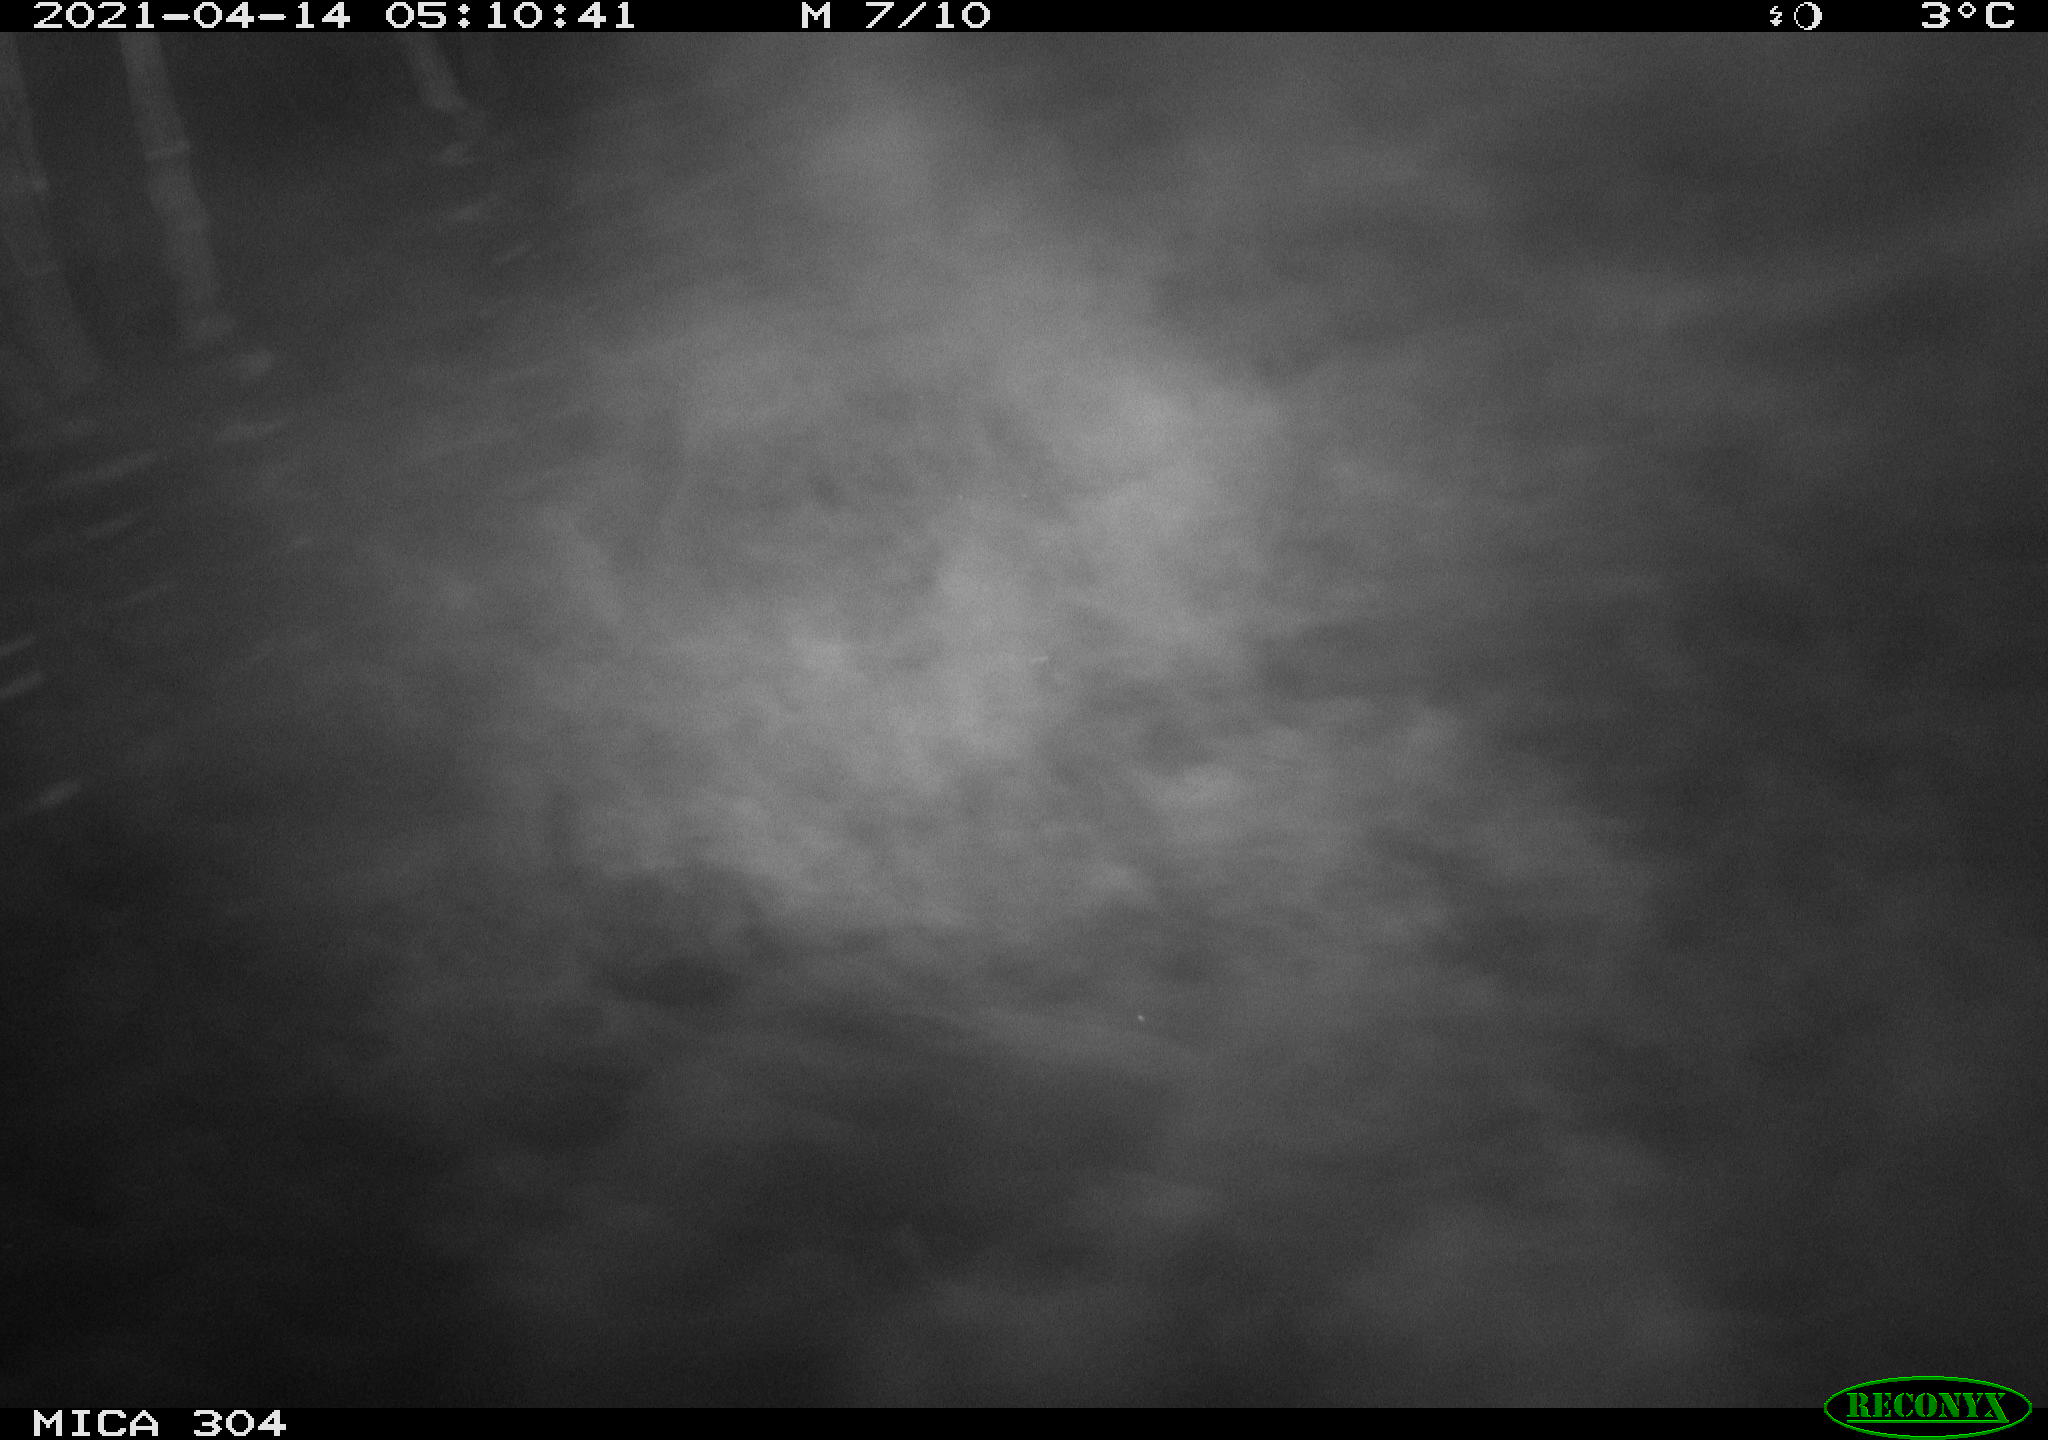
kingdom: Animalia
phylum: Chordata
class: Aves
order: Anseriformes
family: Anatidae
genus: Anas
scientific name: Anas
